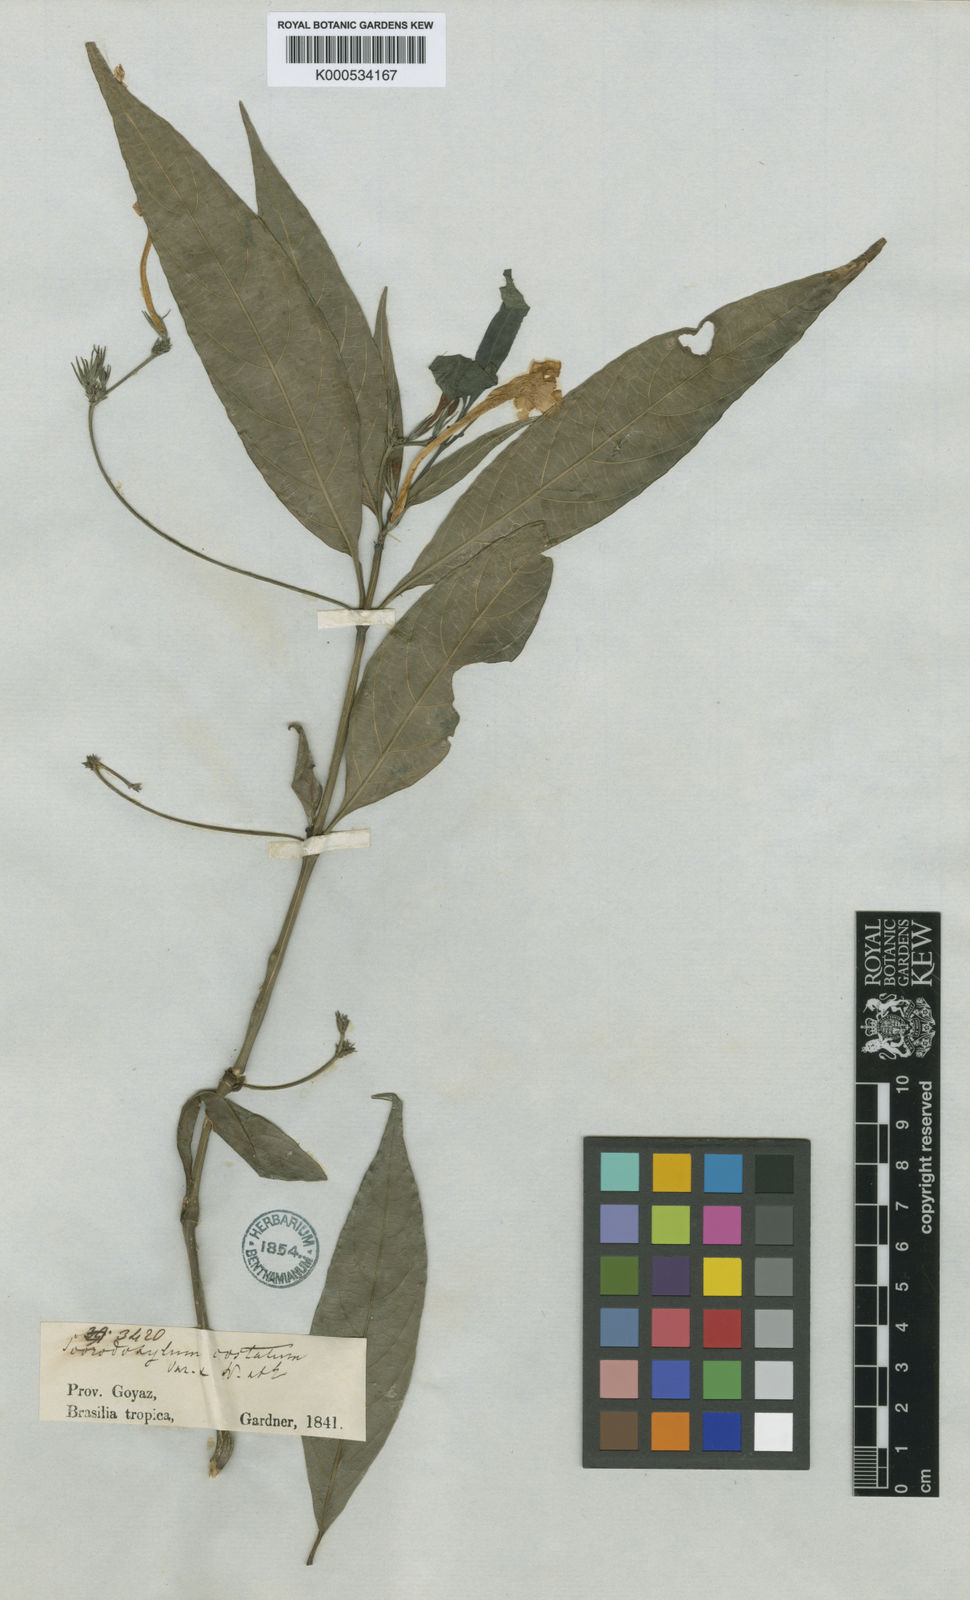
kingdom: Plantae
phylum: Tracheophyta
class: Magnoliopsida
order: Lamiales
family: Acanthaceae
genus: Ruellia
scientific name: Ruellia costata
